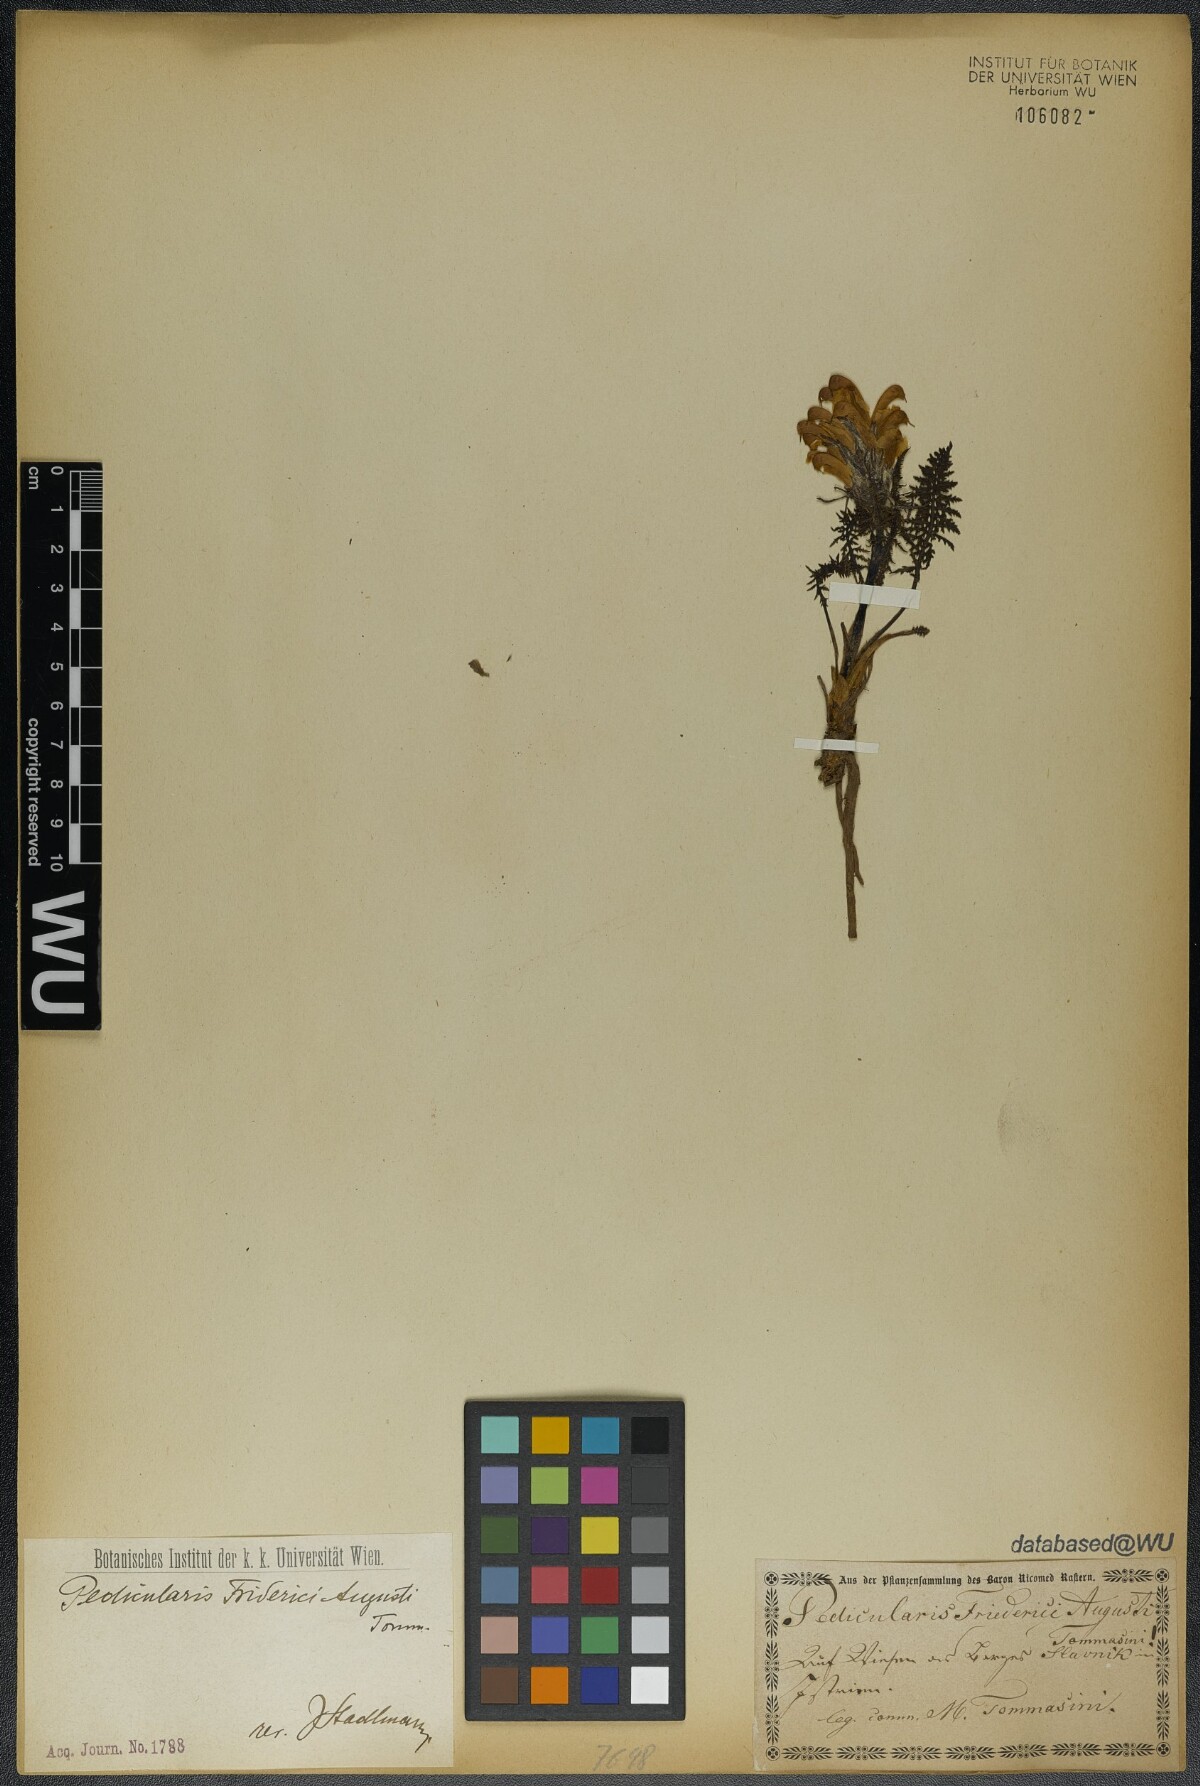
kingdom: Plantae
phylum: Tracheophyta
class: Magnoliopsida
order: Lamiales
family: Orobanchaceae
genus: Pedicularis
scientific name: Pedicularis friderici-augusti
